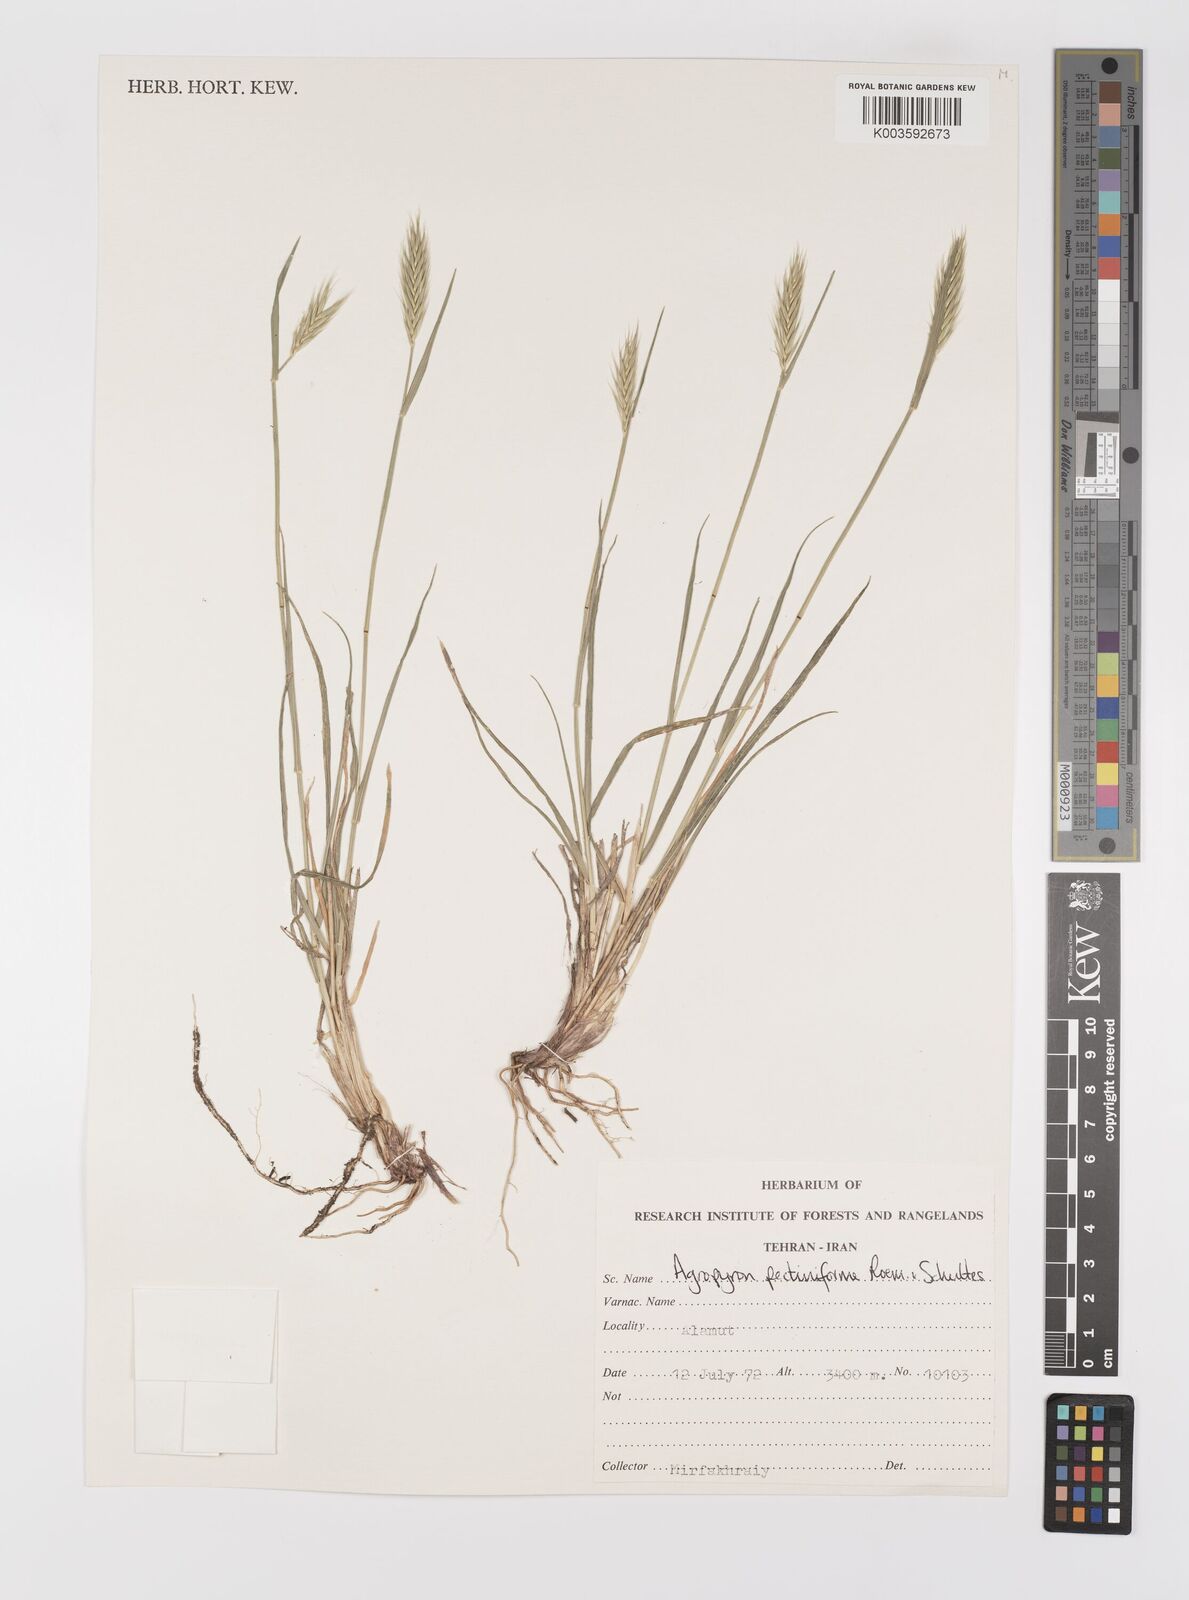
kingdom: Plantae
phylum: Tracheophyta
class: Liliopsida
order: Poales
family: Poaceae
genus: Agropyron
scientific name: Agropyron
